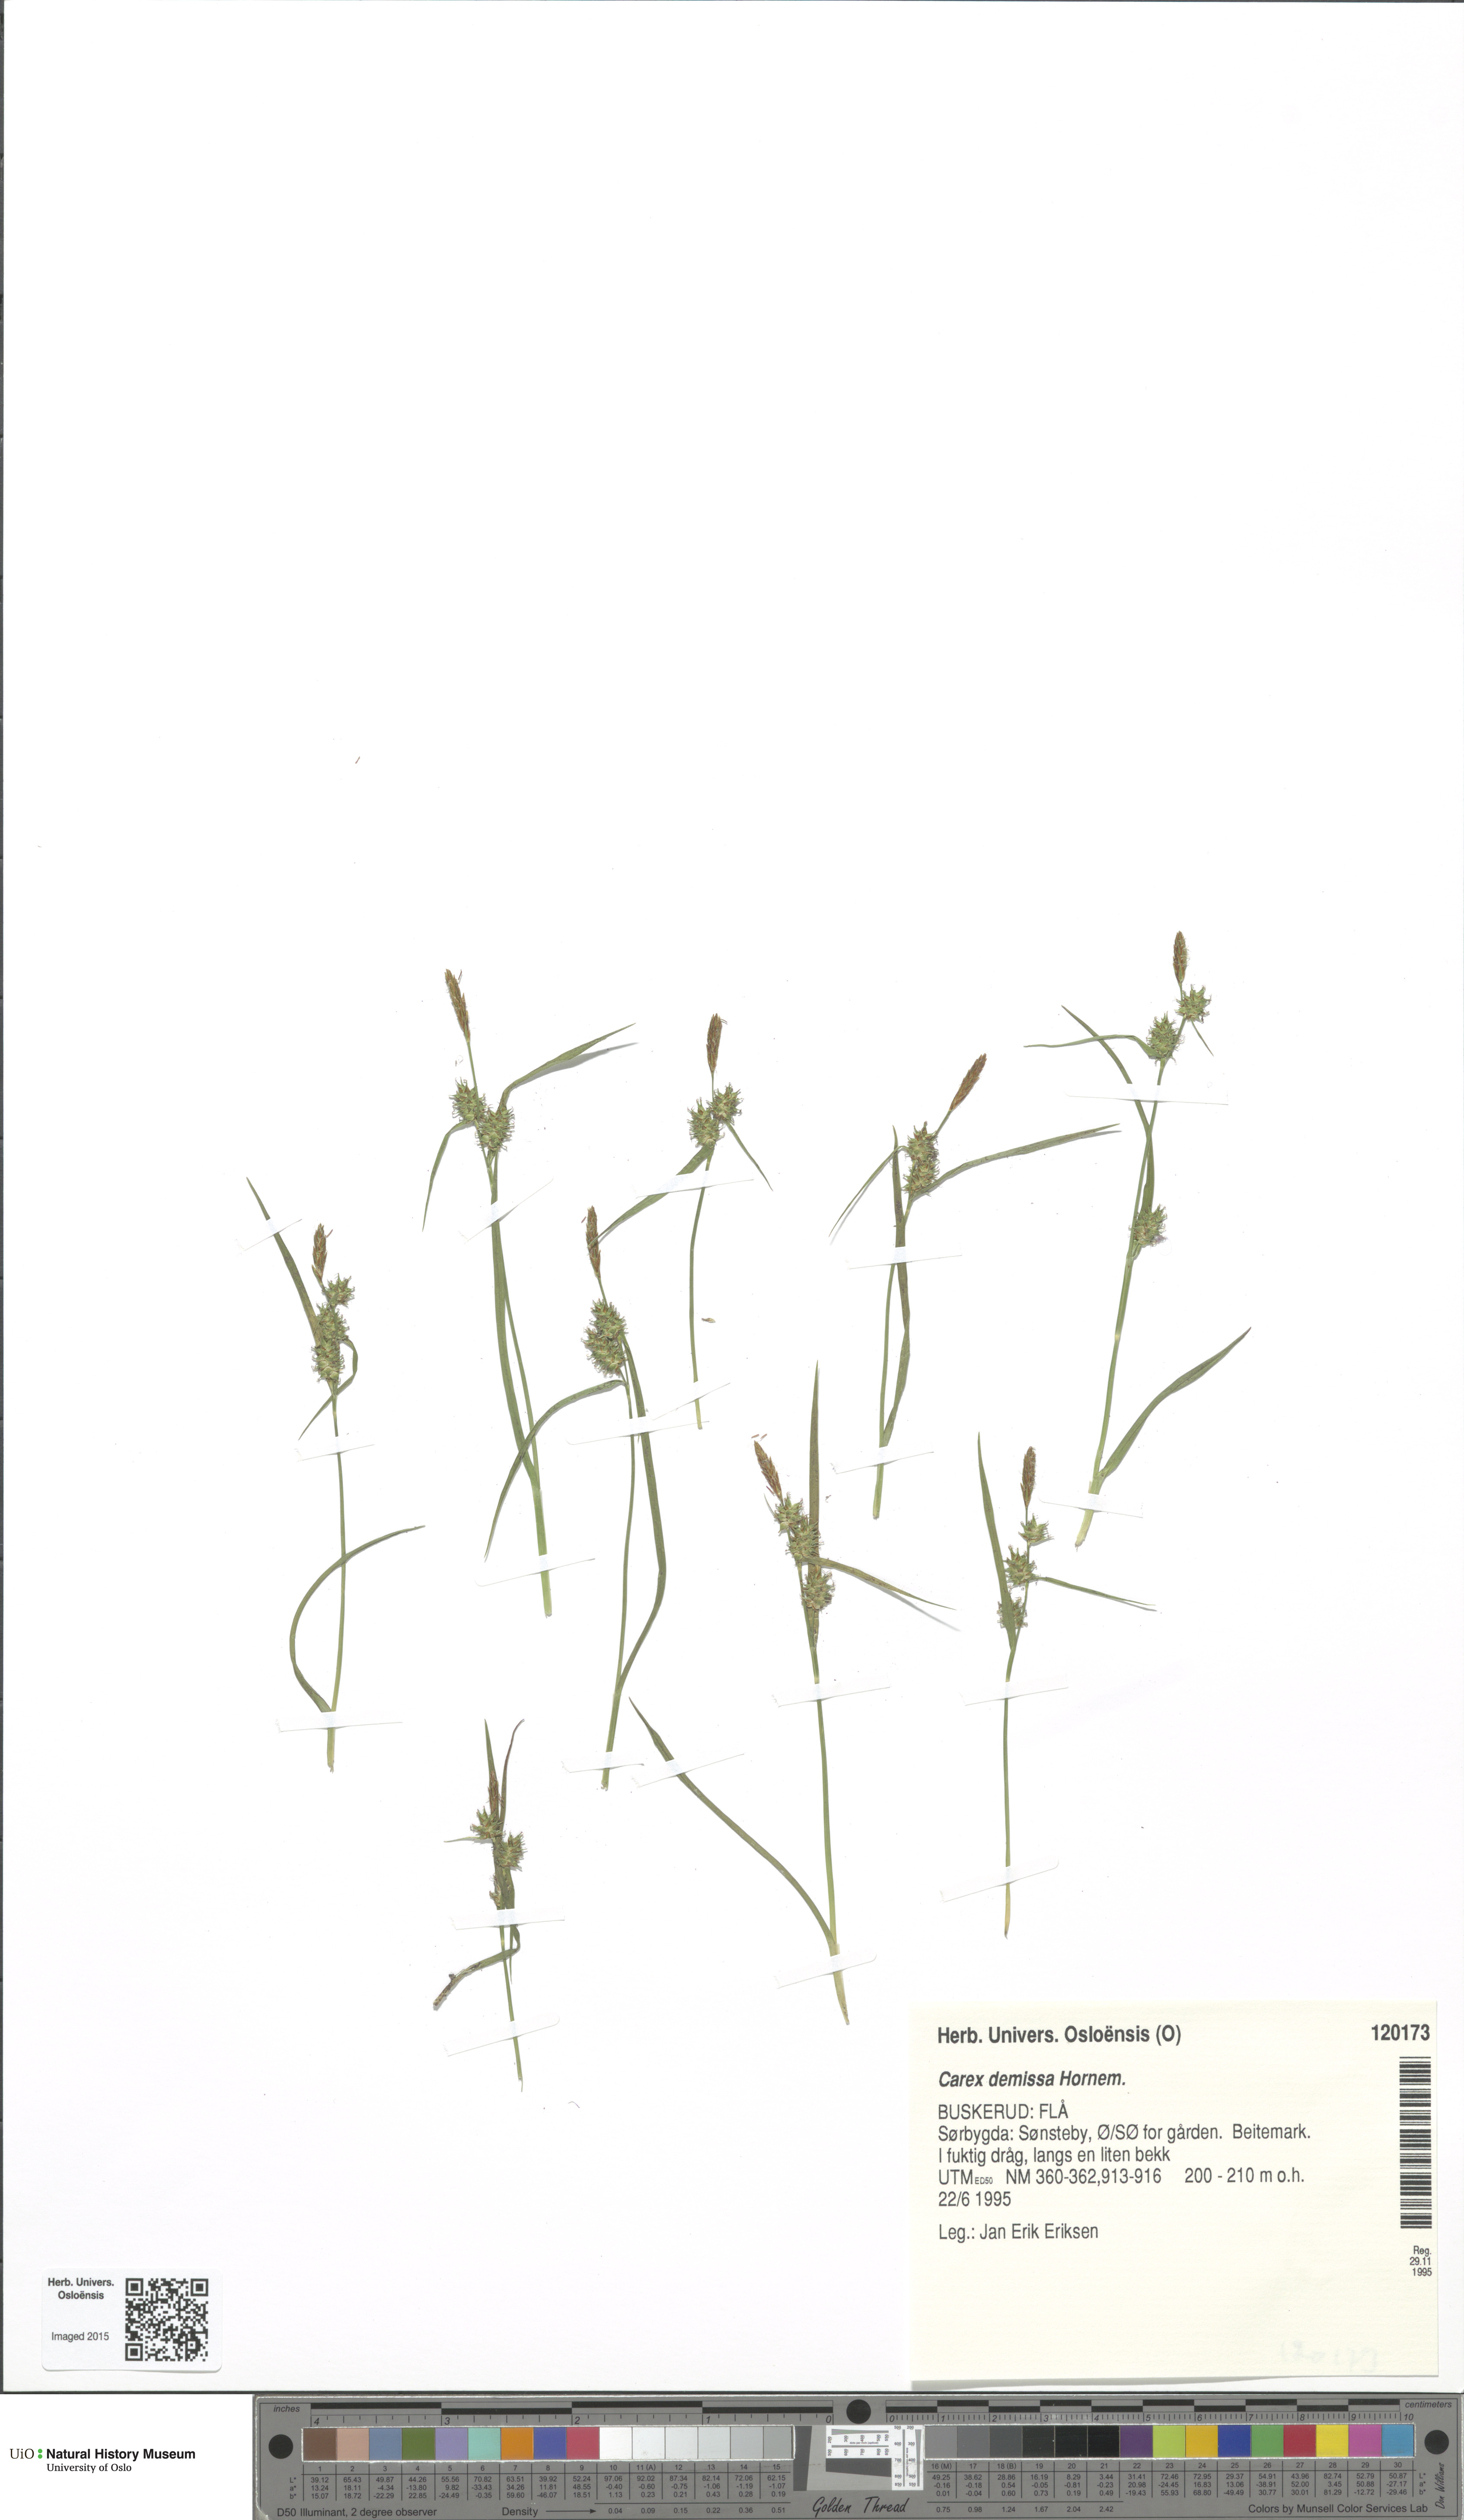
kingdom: Plantae
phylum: Tracheophyta
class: Liliopsida
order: Poales
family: Cyperaceae
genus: Carex
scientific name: Carex demissa
